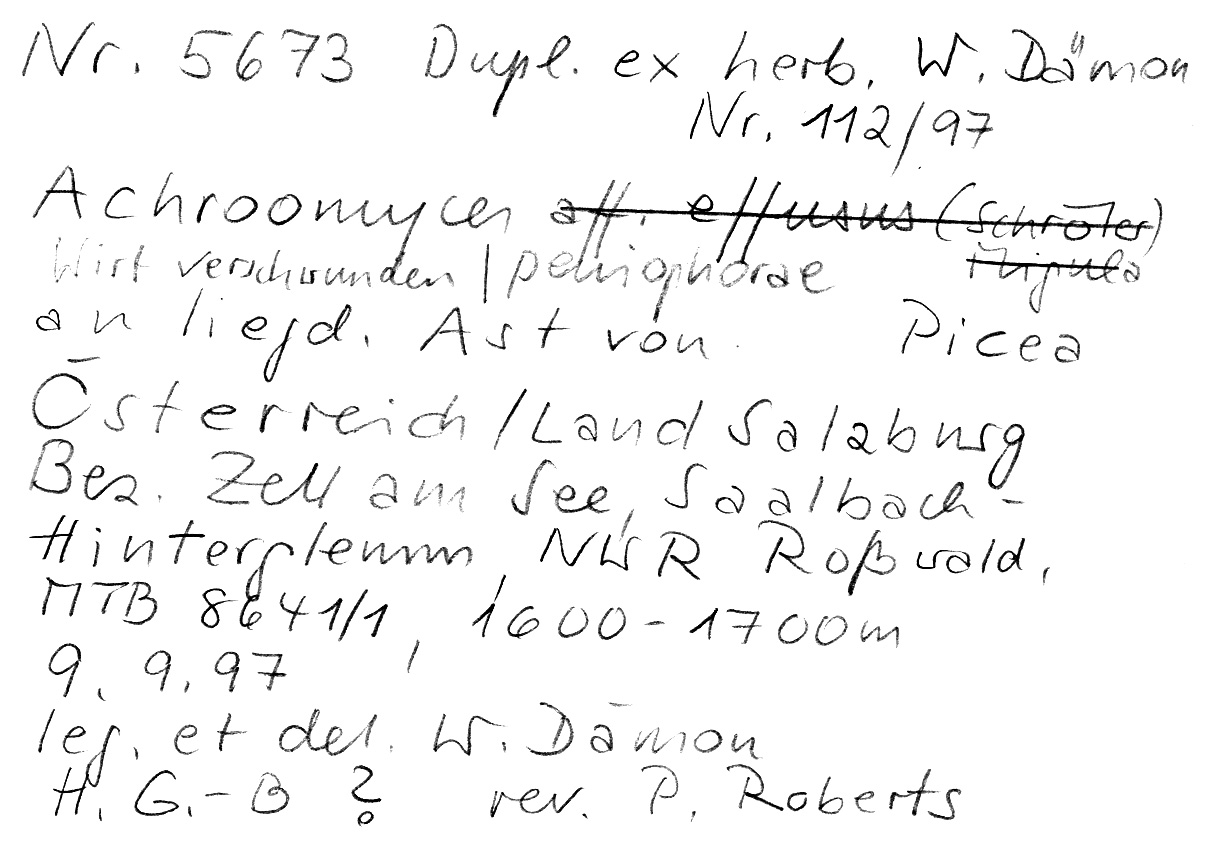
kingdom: Plantae
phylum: Tracheophyta
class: Pinopsida
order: Pinales
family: Pinaceae
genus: Picea
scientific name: Picea
